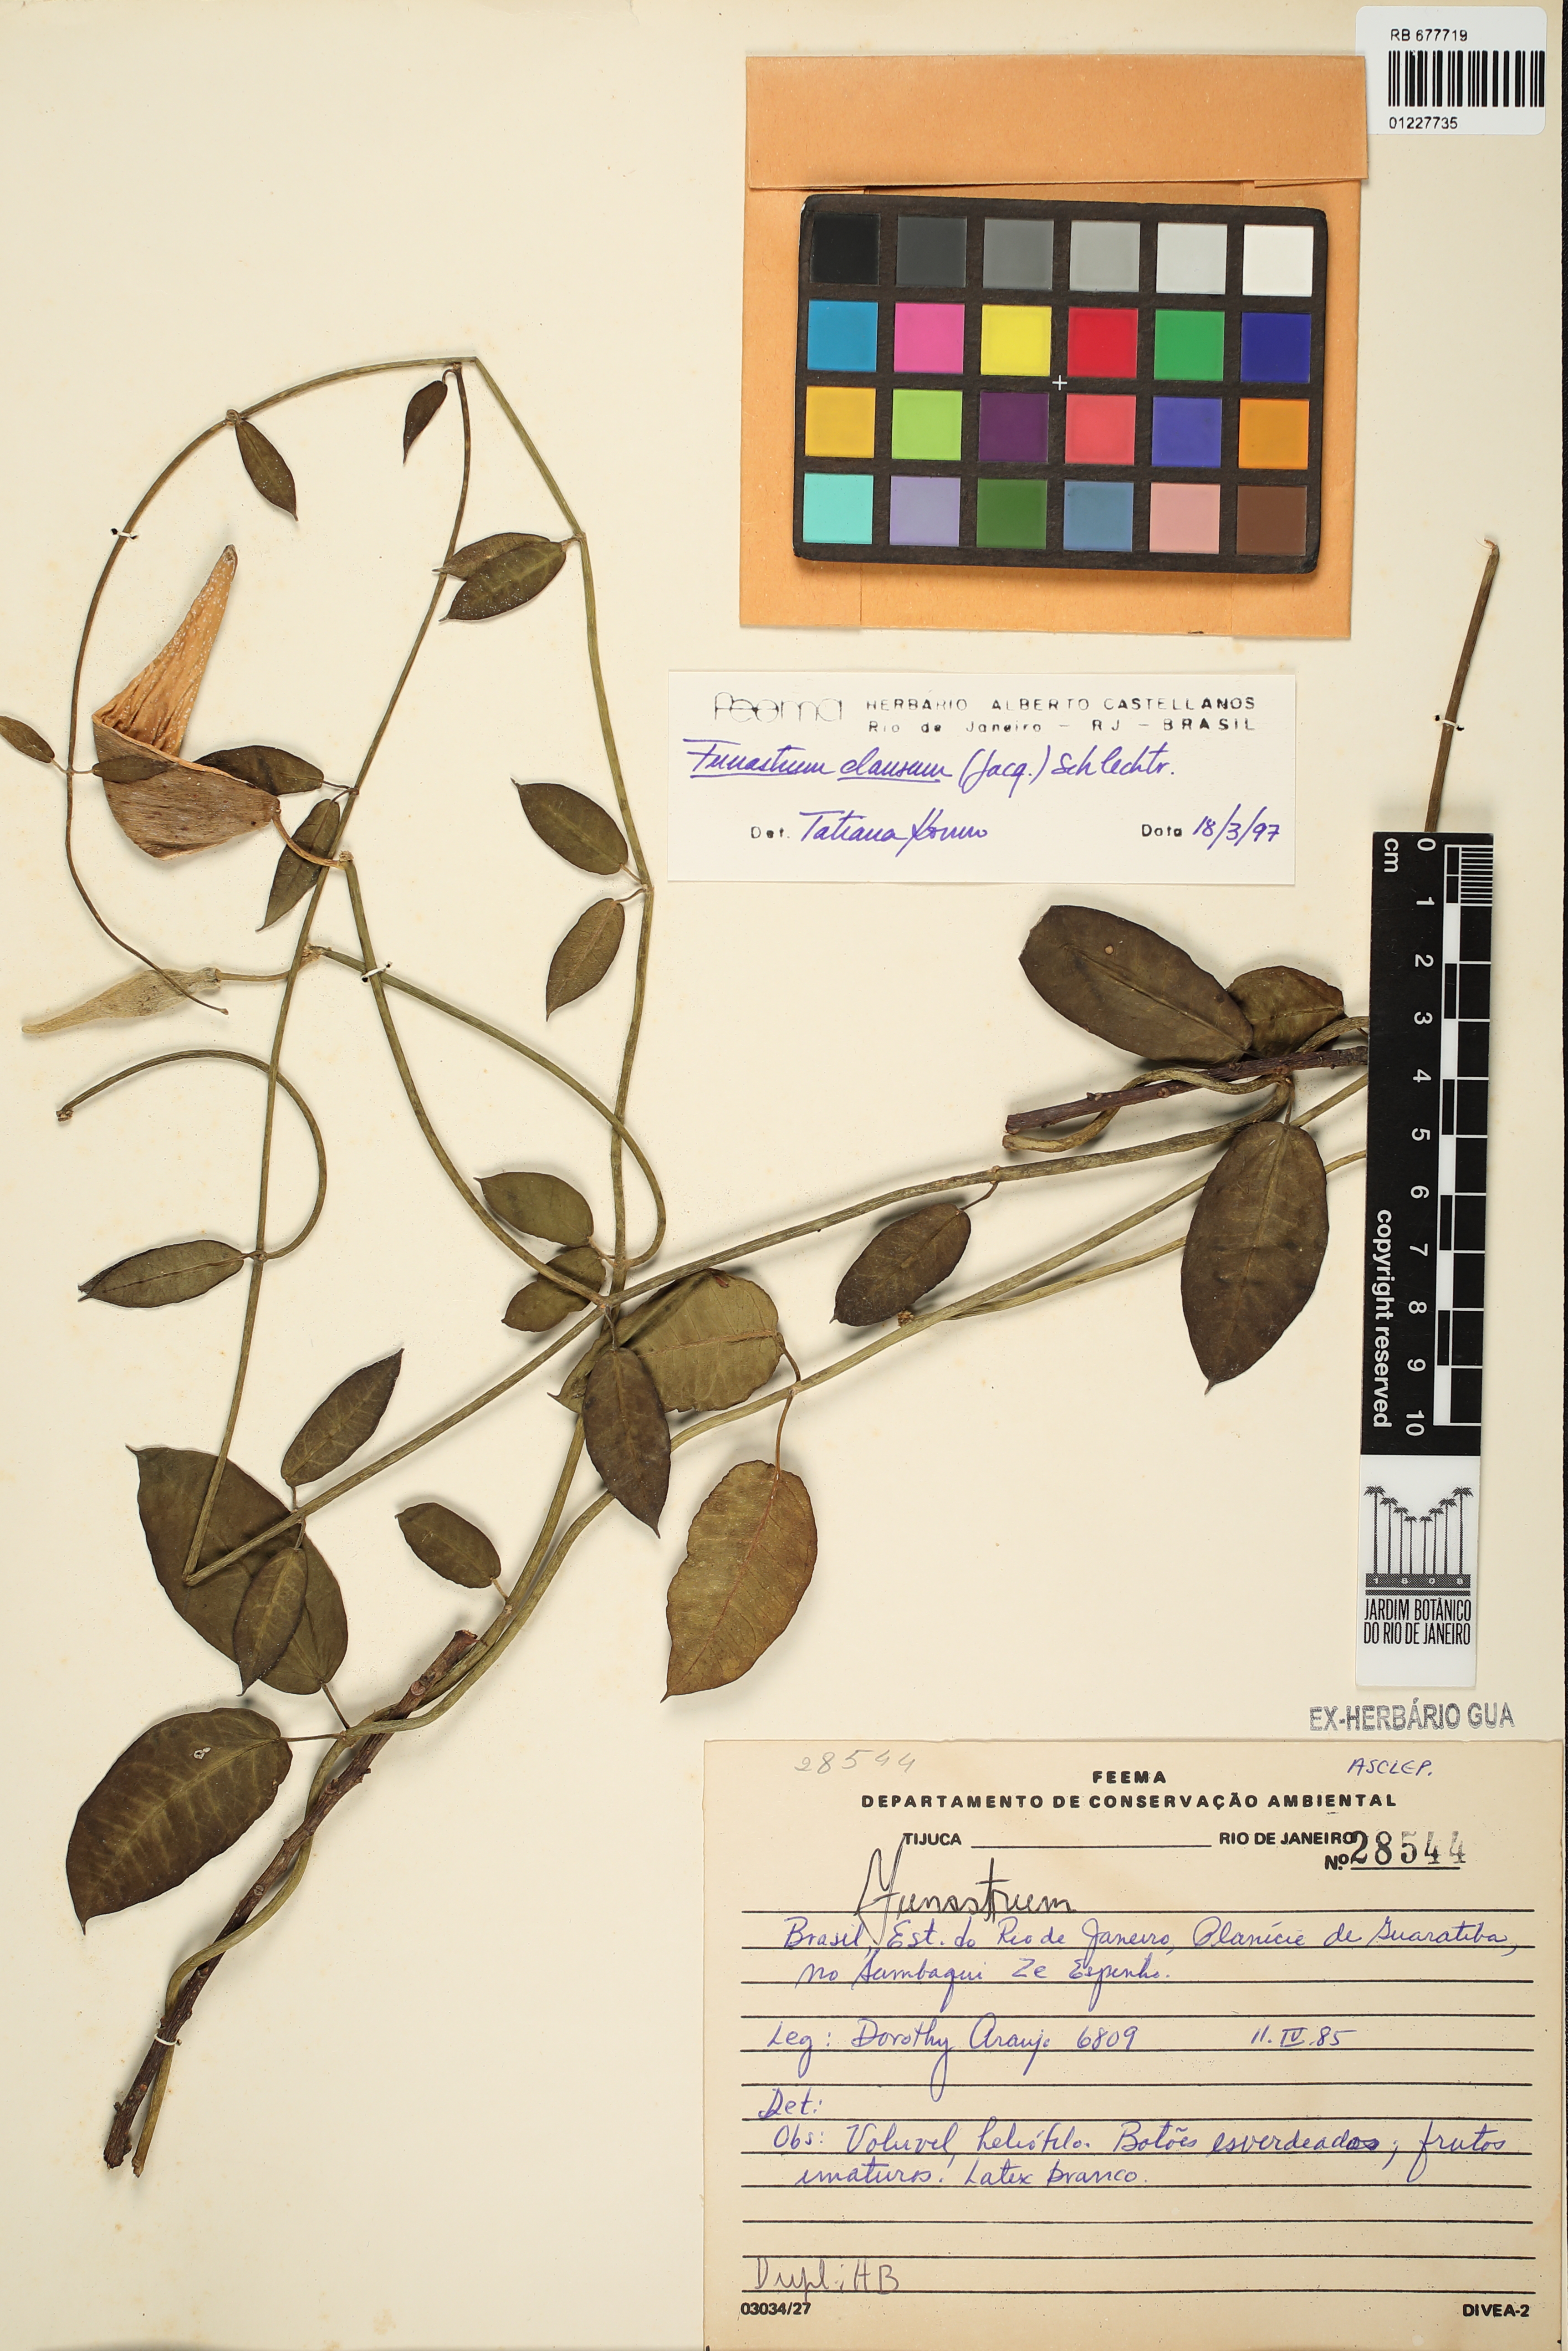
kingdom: Plantae
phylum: Tracheophyta
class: Magnoliopsida
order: Gentianales
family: Apocynaceae
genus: Funastrum
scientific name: Funastrum clausum
